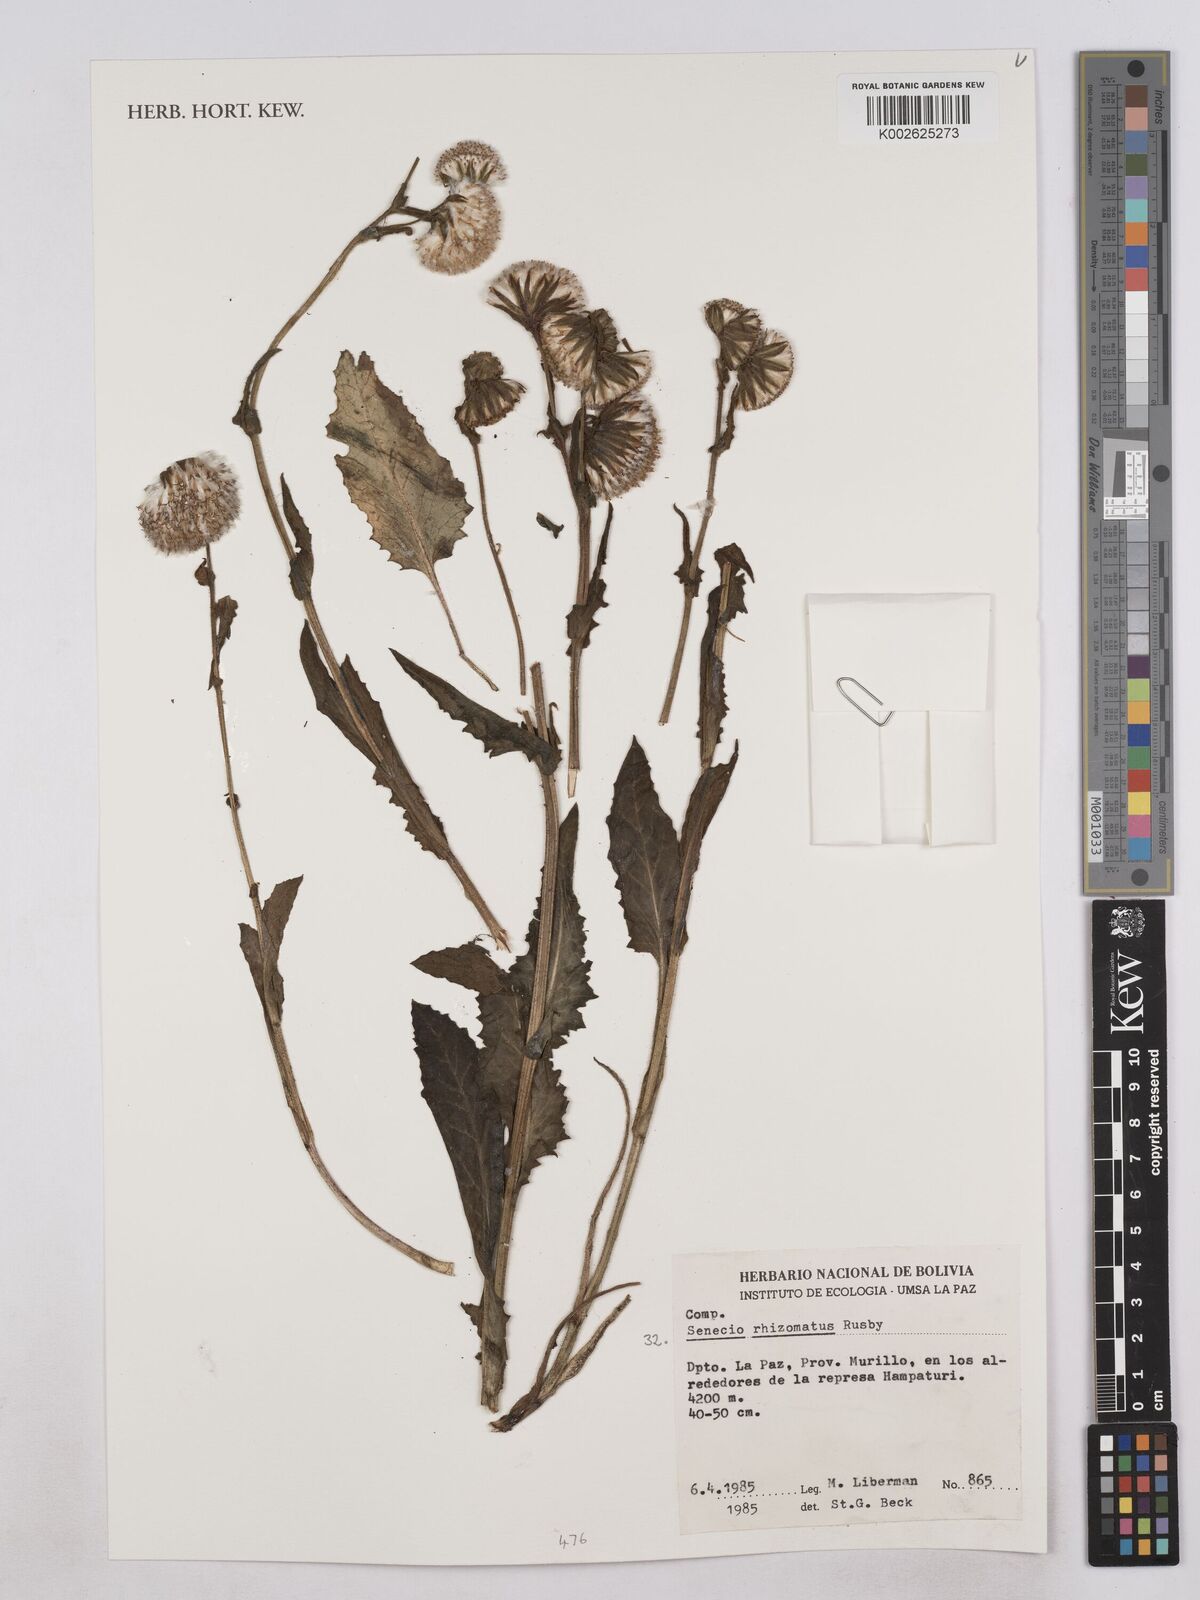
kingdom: Plantae
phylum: Tracheophyta
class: Magnoliopsida
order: Asterales
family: Asteraceae
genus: Senecio
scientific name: Senecio rhizomatus
